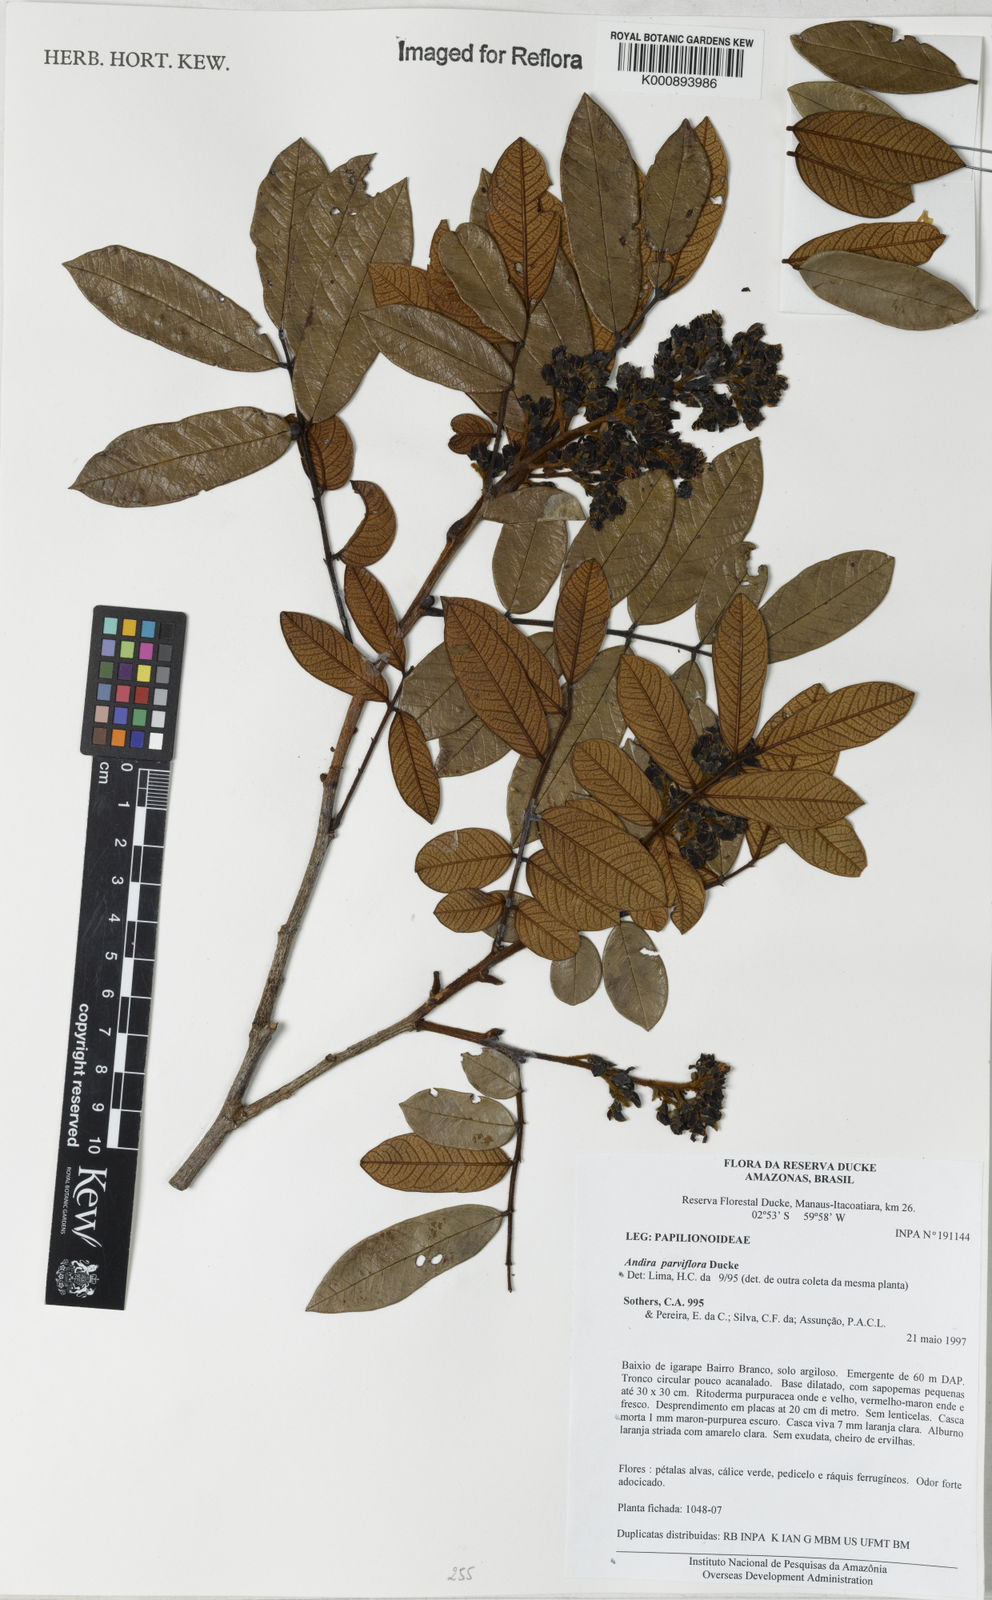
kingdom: Plantae
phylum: Tracheophyta
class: Magnoliopsida
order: Fabales
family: Fabaceae
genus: Andira
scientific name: Andira parviflora
